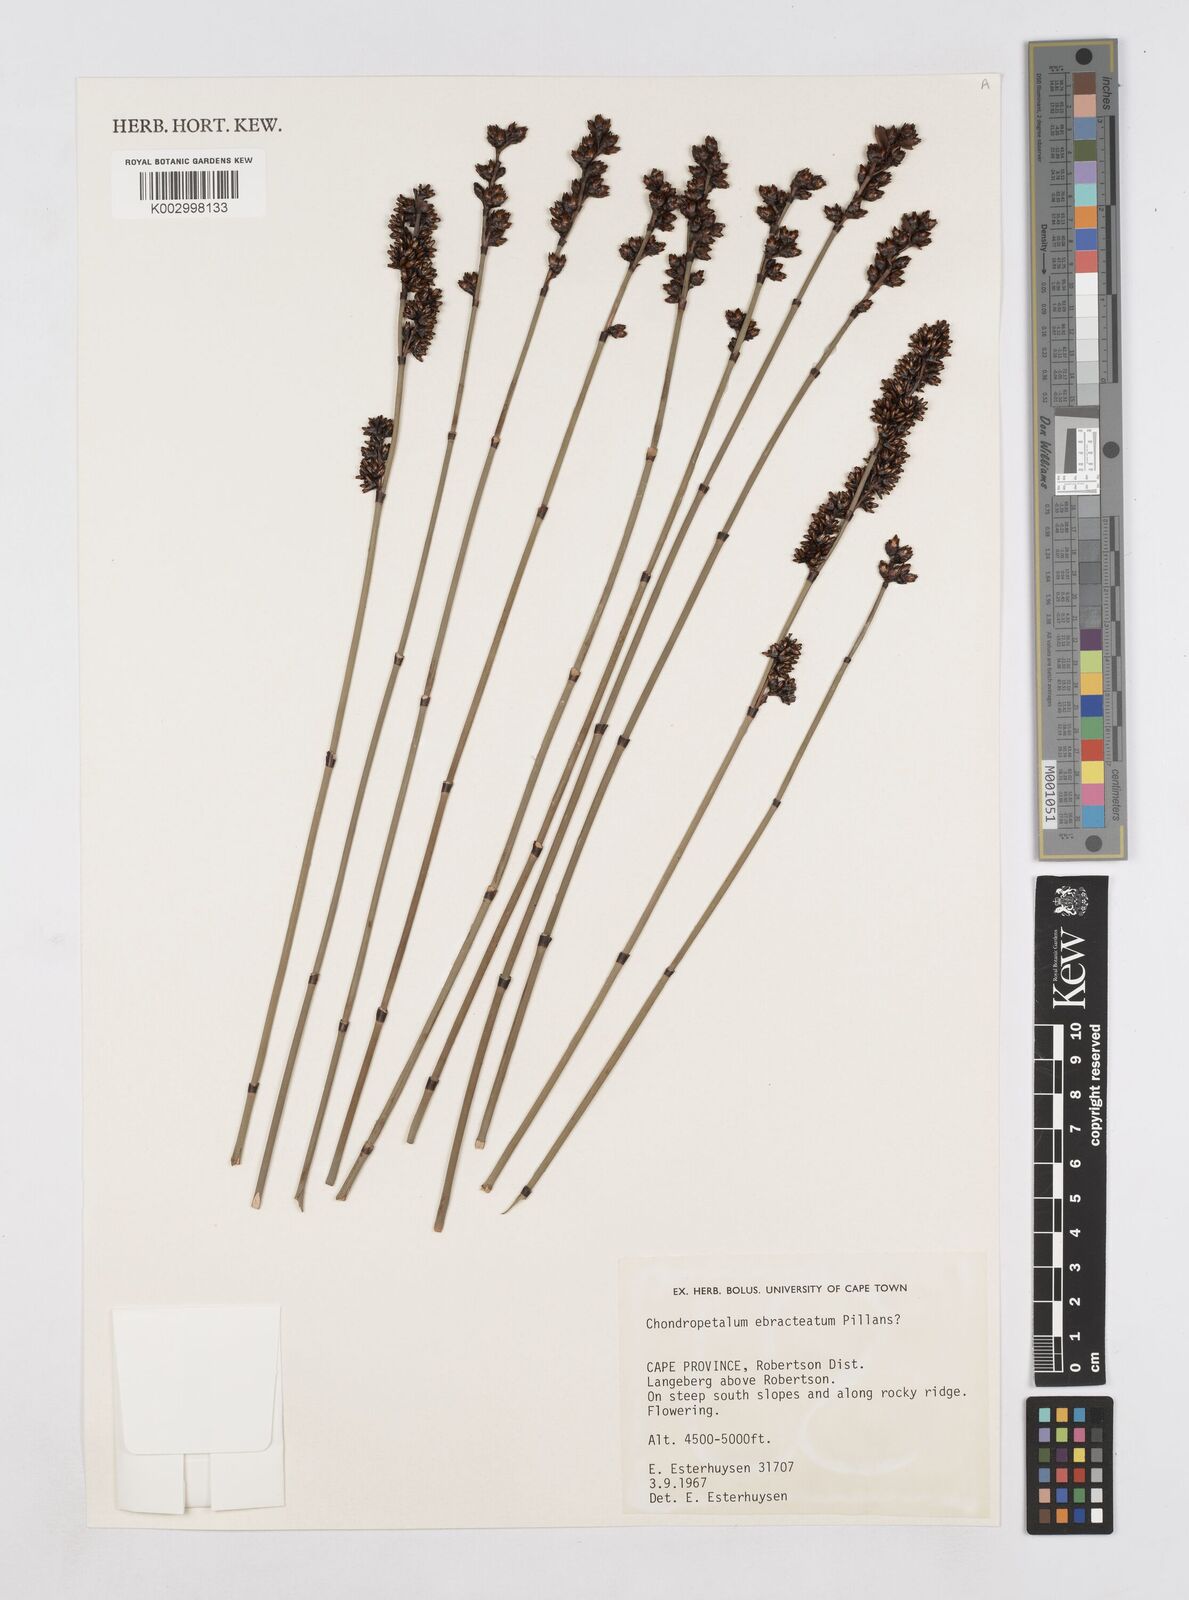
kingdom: Plantae
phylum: Tracheophyta
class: Liliopsida
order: Poales
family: Restionaceae
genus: Elegia
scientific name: Elegia ebracteata
